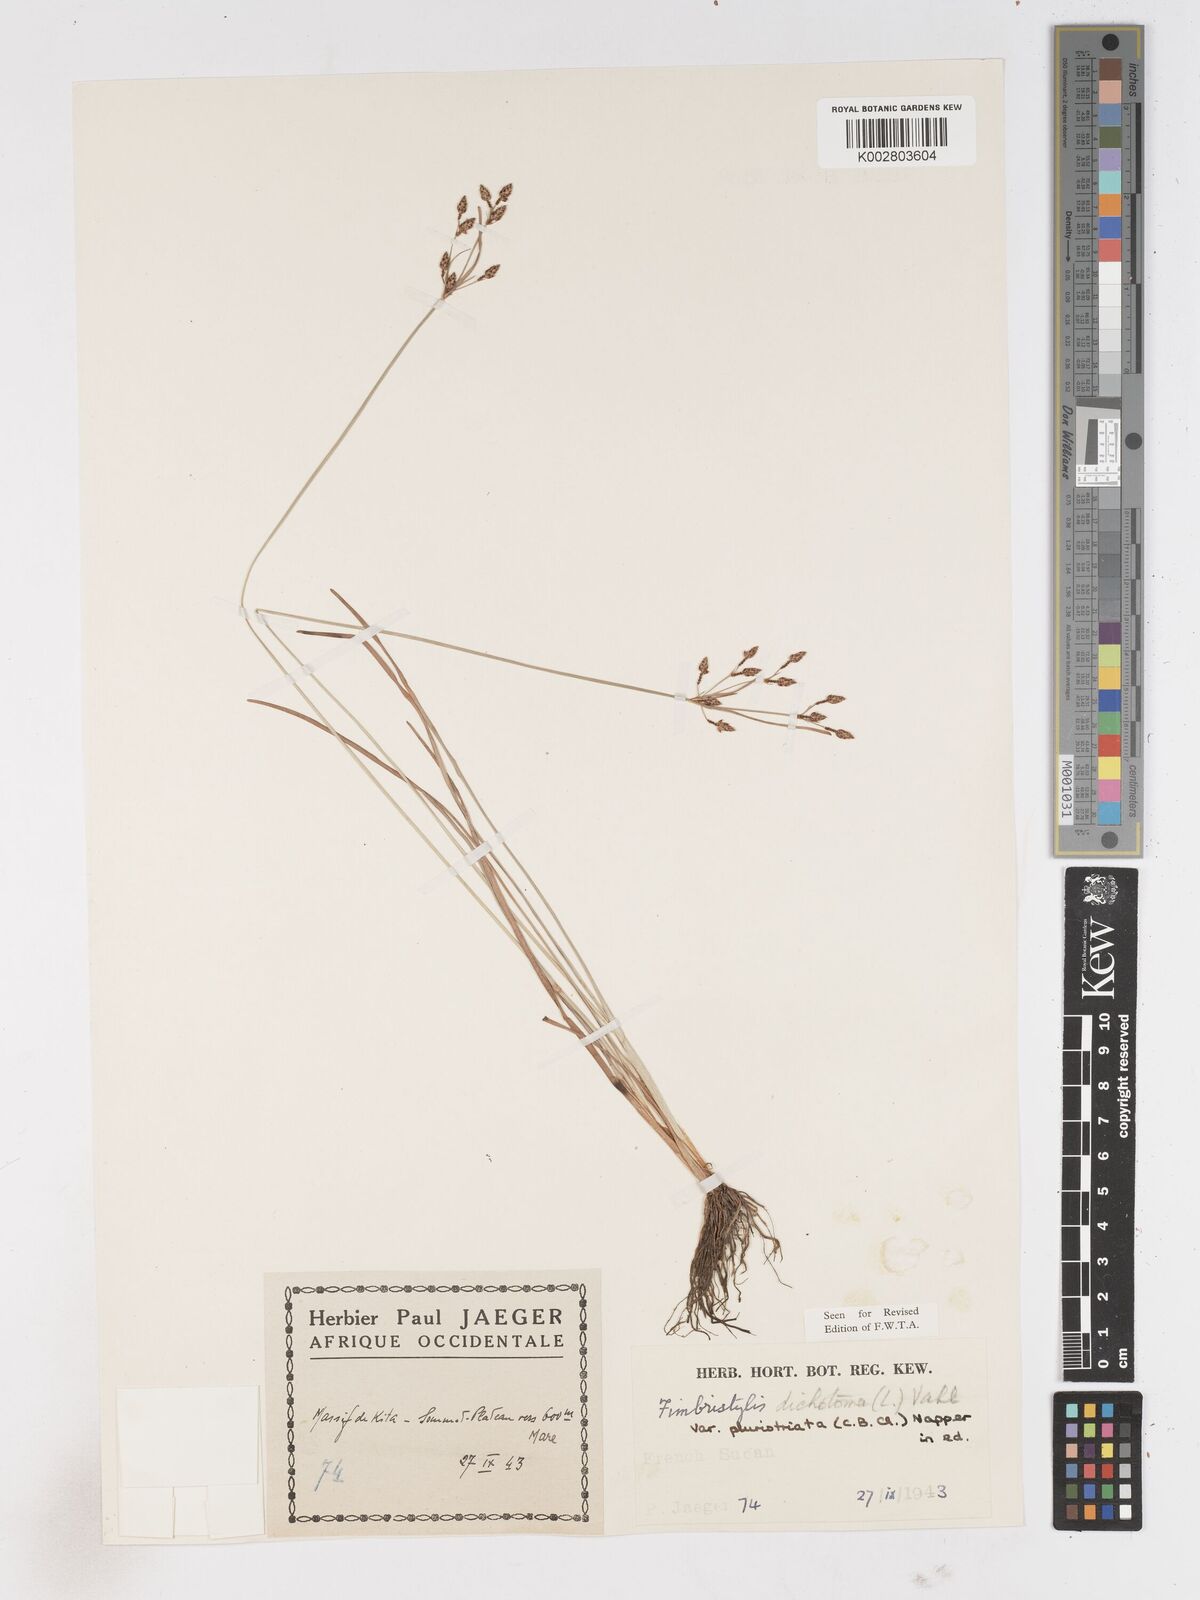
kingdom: Plantae
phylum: Tracheophyta
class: Liliopsida
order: Poales
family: Cyperaceae
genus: Fimbristylis
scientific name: Fimbristylis dichotoma
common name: Forked fimbry
